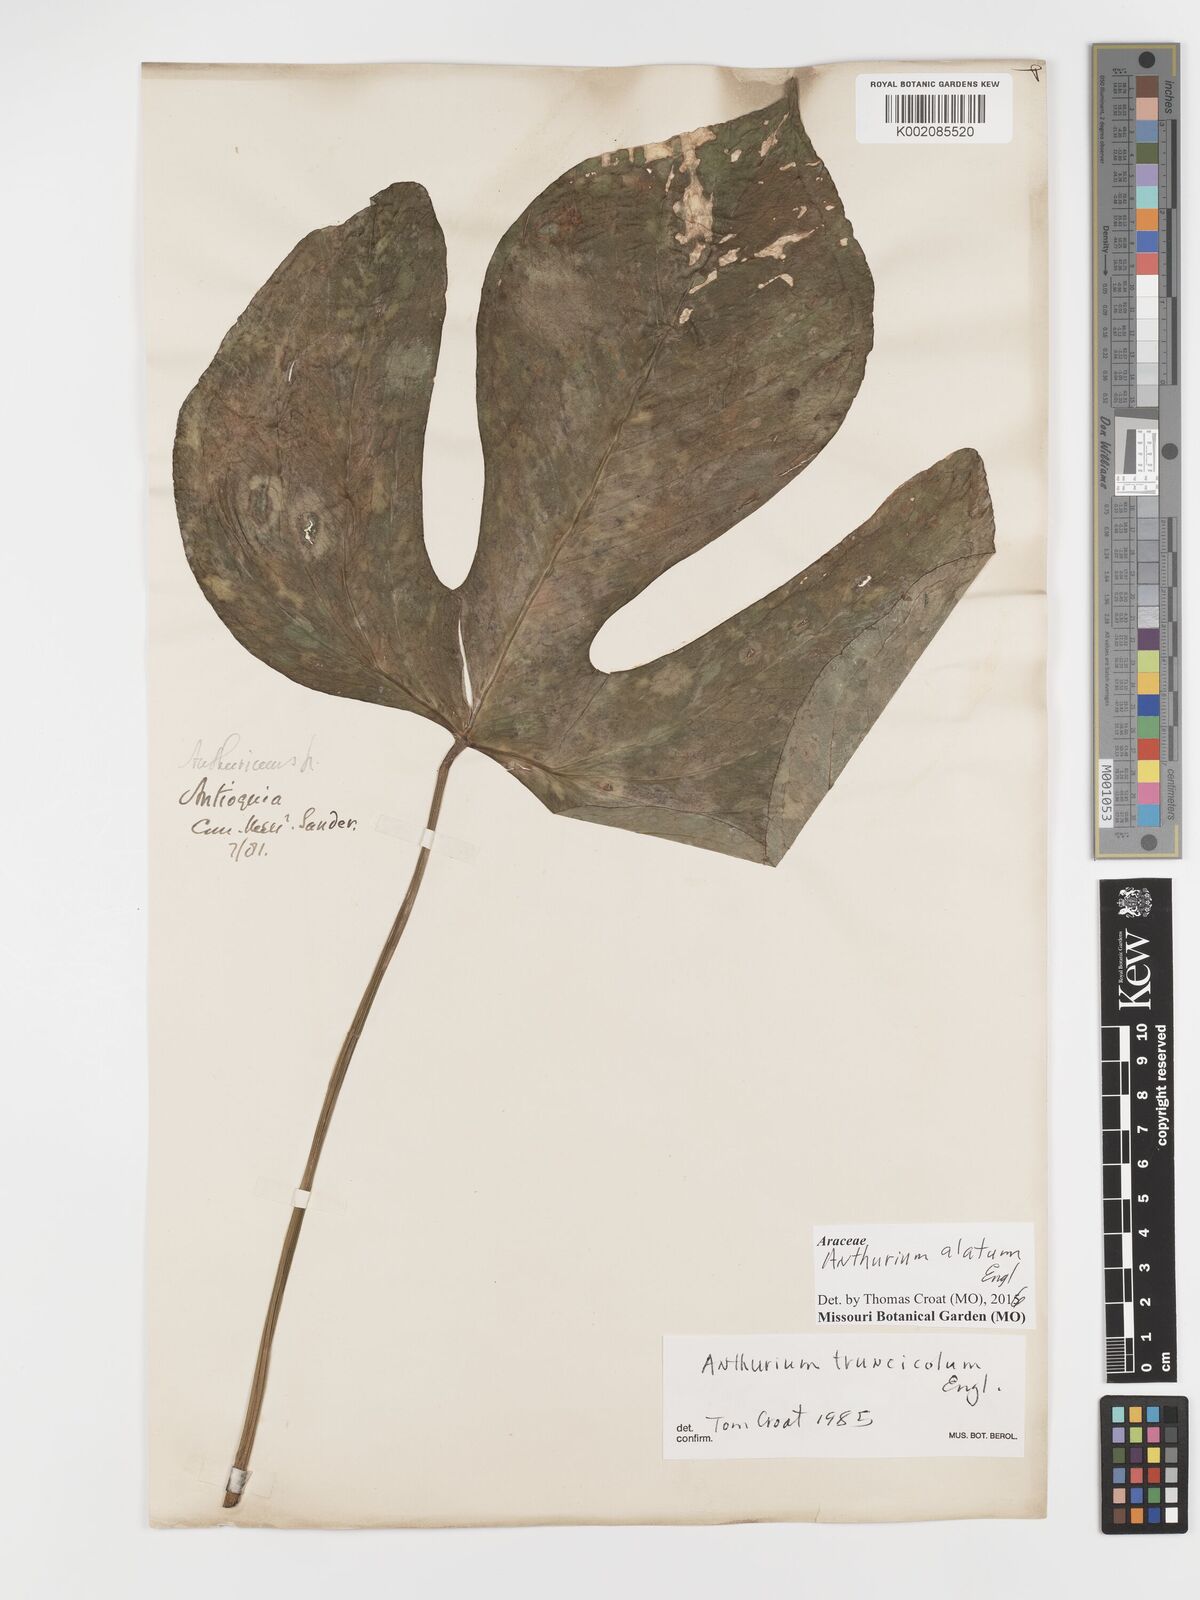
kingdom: Plantae
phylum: Tracheophyta
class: Liliopsida
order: Alismatales
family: Araceae
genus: Anthurium
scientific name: Anthurium alatum
